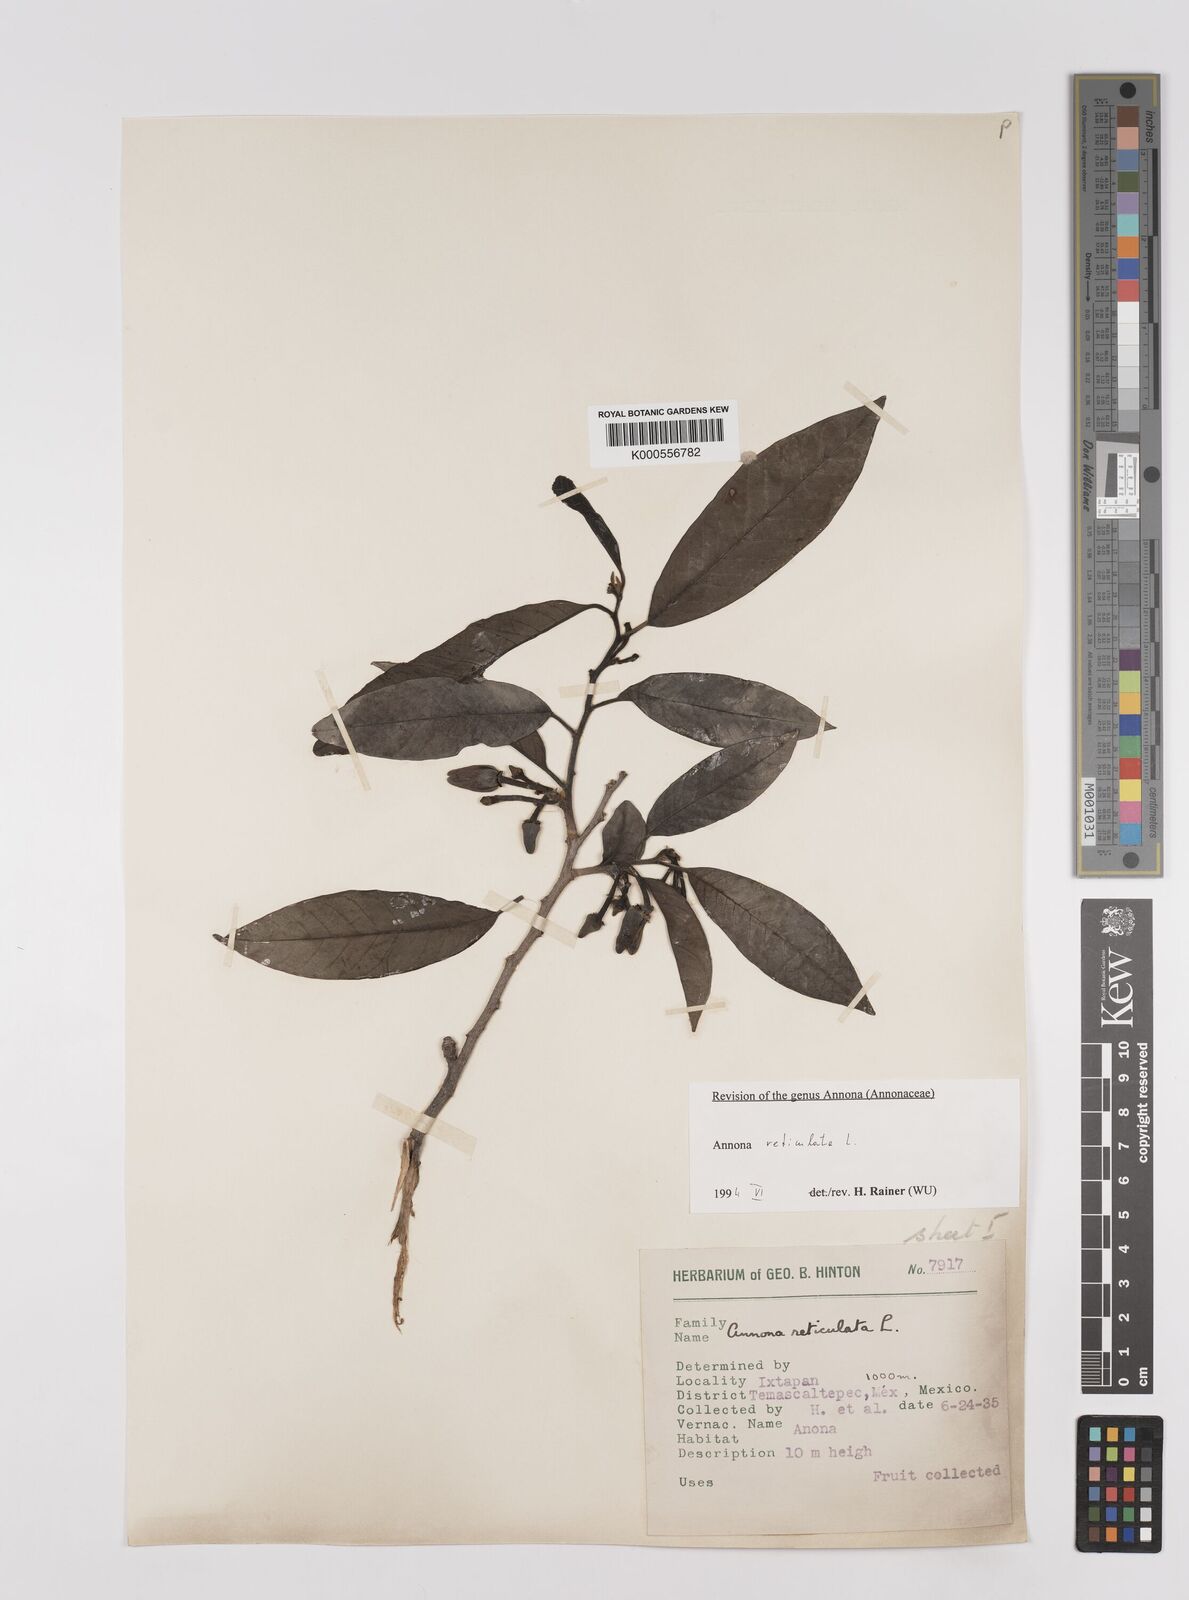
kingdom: Plantae
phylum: Tracheophyta
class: Magnoliopsida
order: Magnoliales
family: Annonaceae
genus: Annona
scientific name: Annona reticulata
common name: Custard apple
